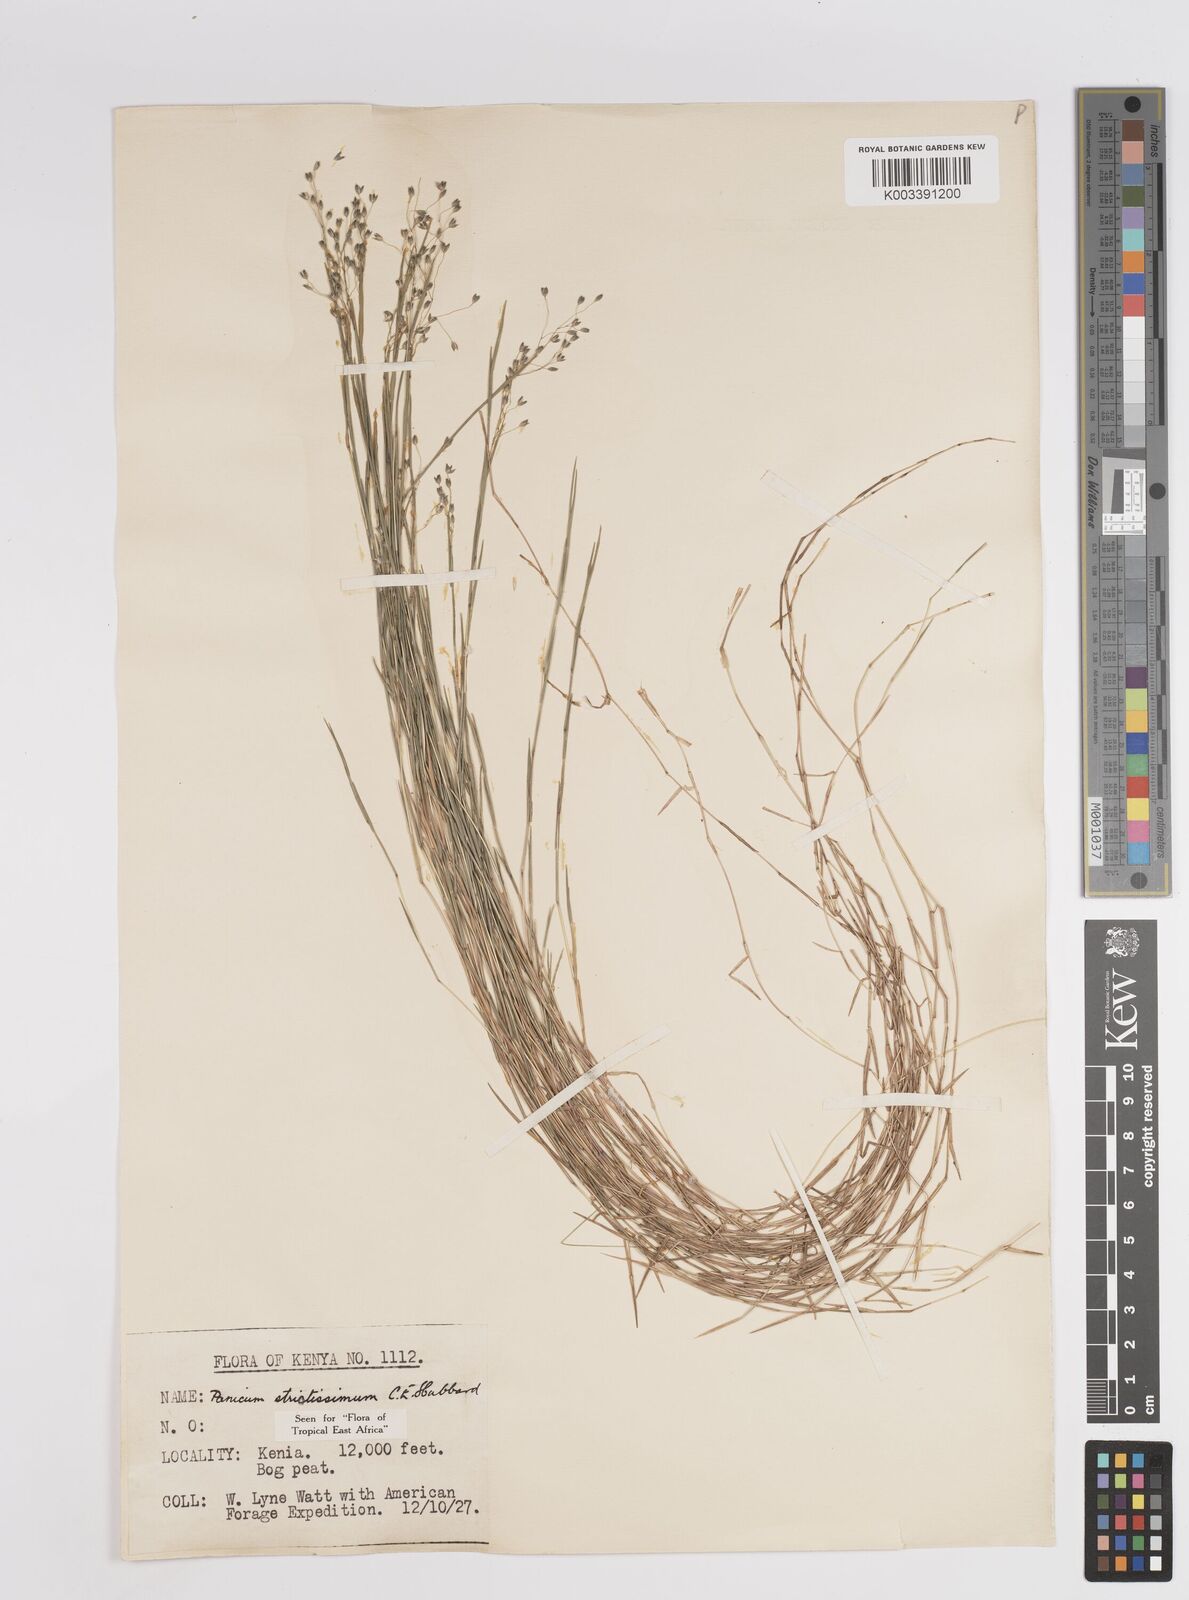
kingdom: Plantae
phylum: Tracheophyta
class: Liliopsida
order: Poales
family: Poaceae
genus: Panicum
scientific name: Panicum eickii
